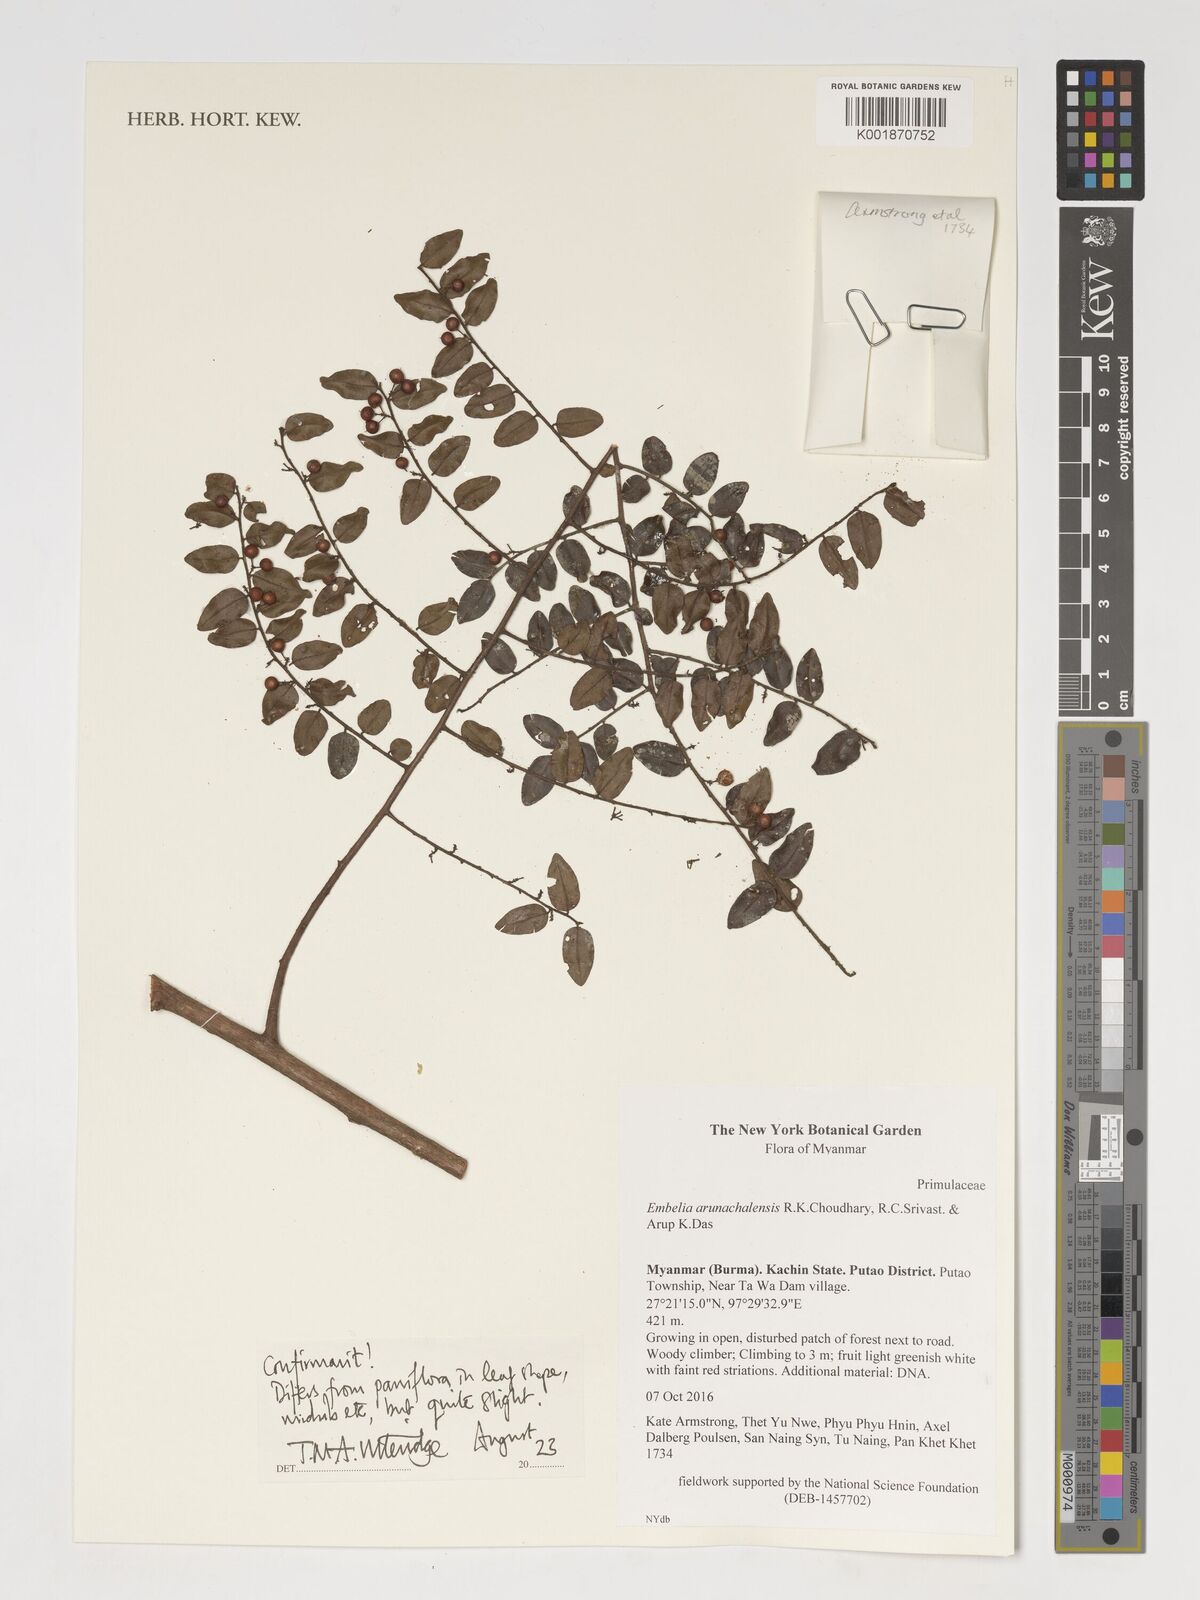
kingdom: Plantae
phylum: Tracheophyta
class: Magnoliopsida
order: Ericales
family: Primulaceae
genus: Embelia
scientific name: Embelia arunachalensis
